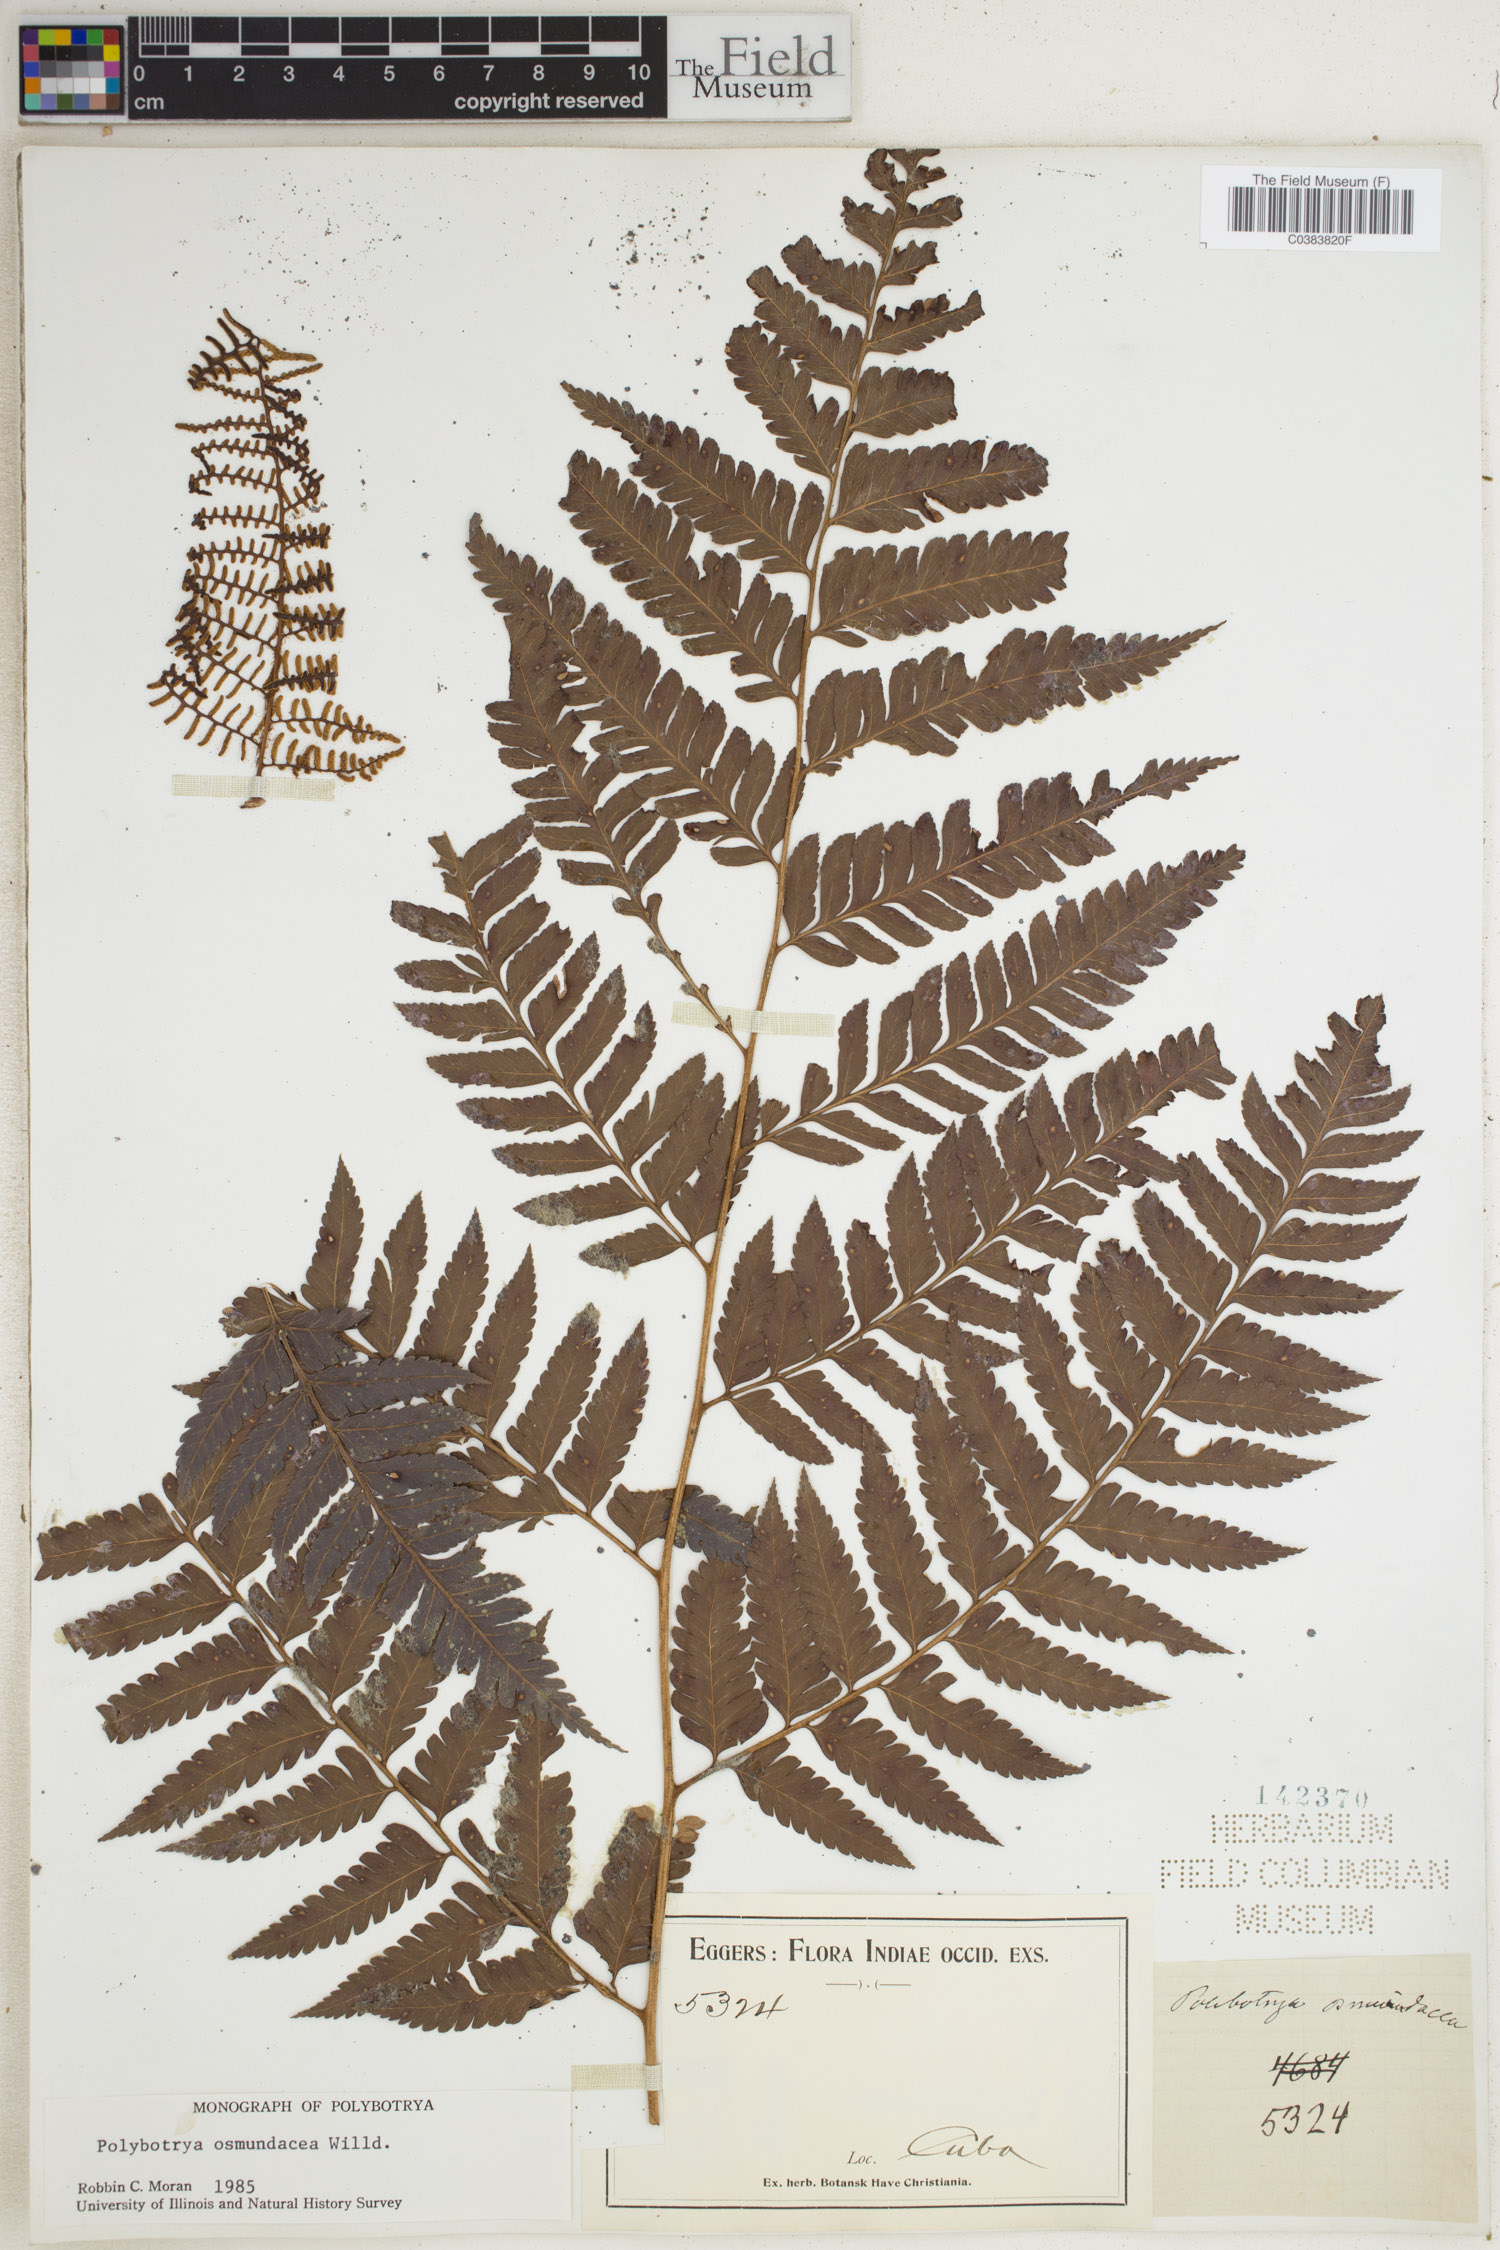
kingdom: Plantae
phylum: Tracheophyta
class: Polypodiopsida
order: Polypodiales
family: Dryopteridaceae
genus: Polybotrya
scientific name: Polybotrya osmundacea
